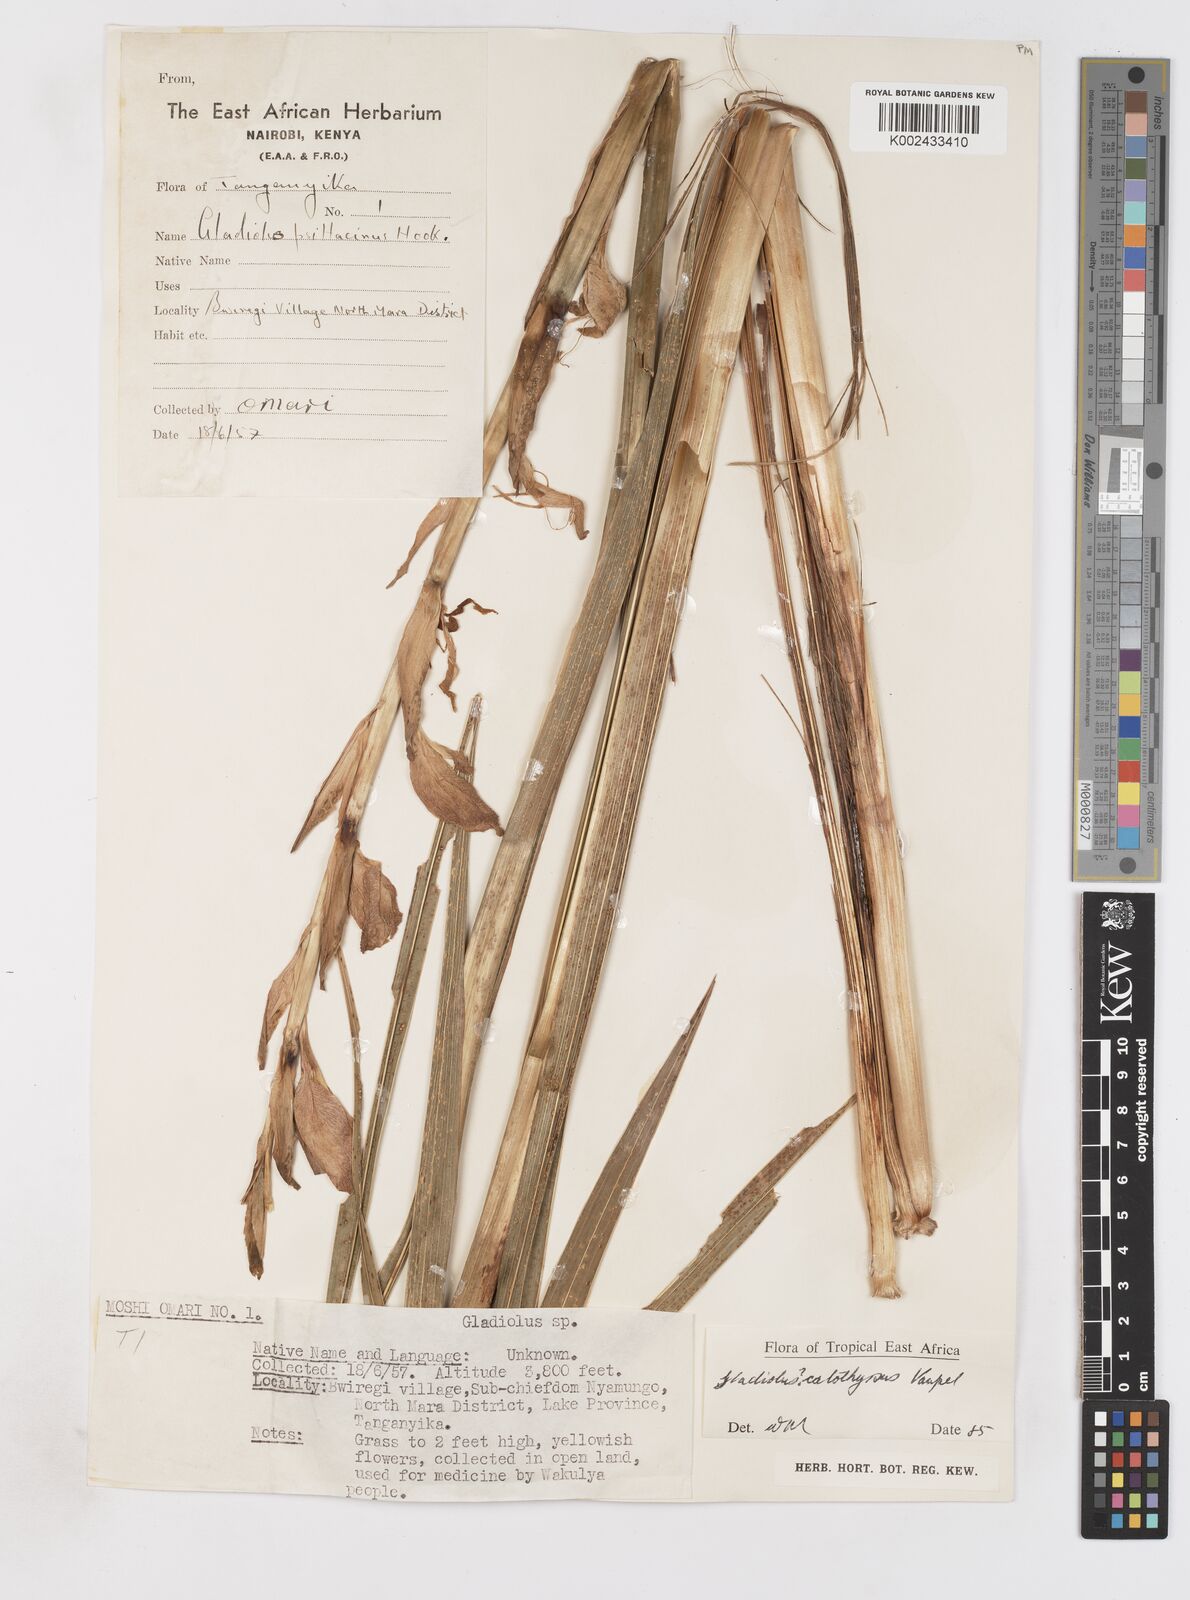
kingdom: Plantae
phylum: Tracheophyta
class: Liliopsida
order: Asparagales
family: Iridaceae
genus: Gladiolus
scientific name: Gladiolus dalenii
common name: Cornflag
